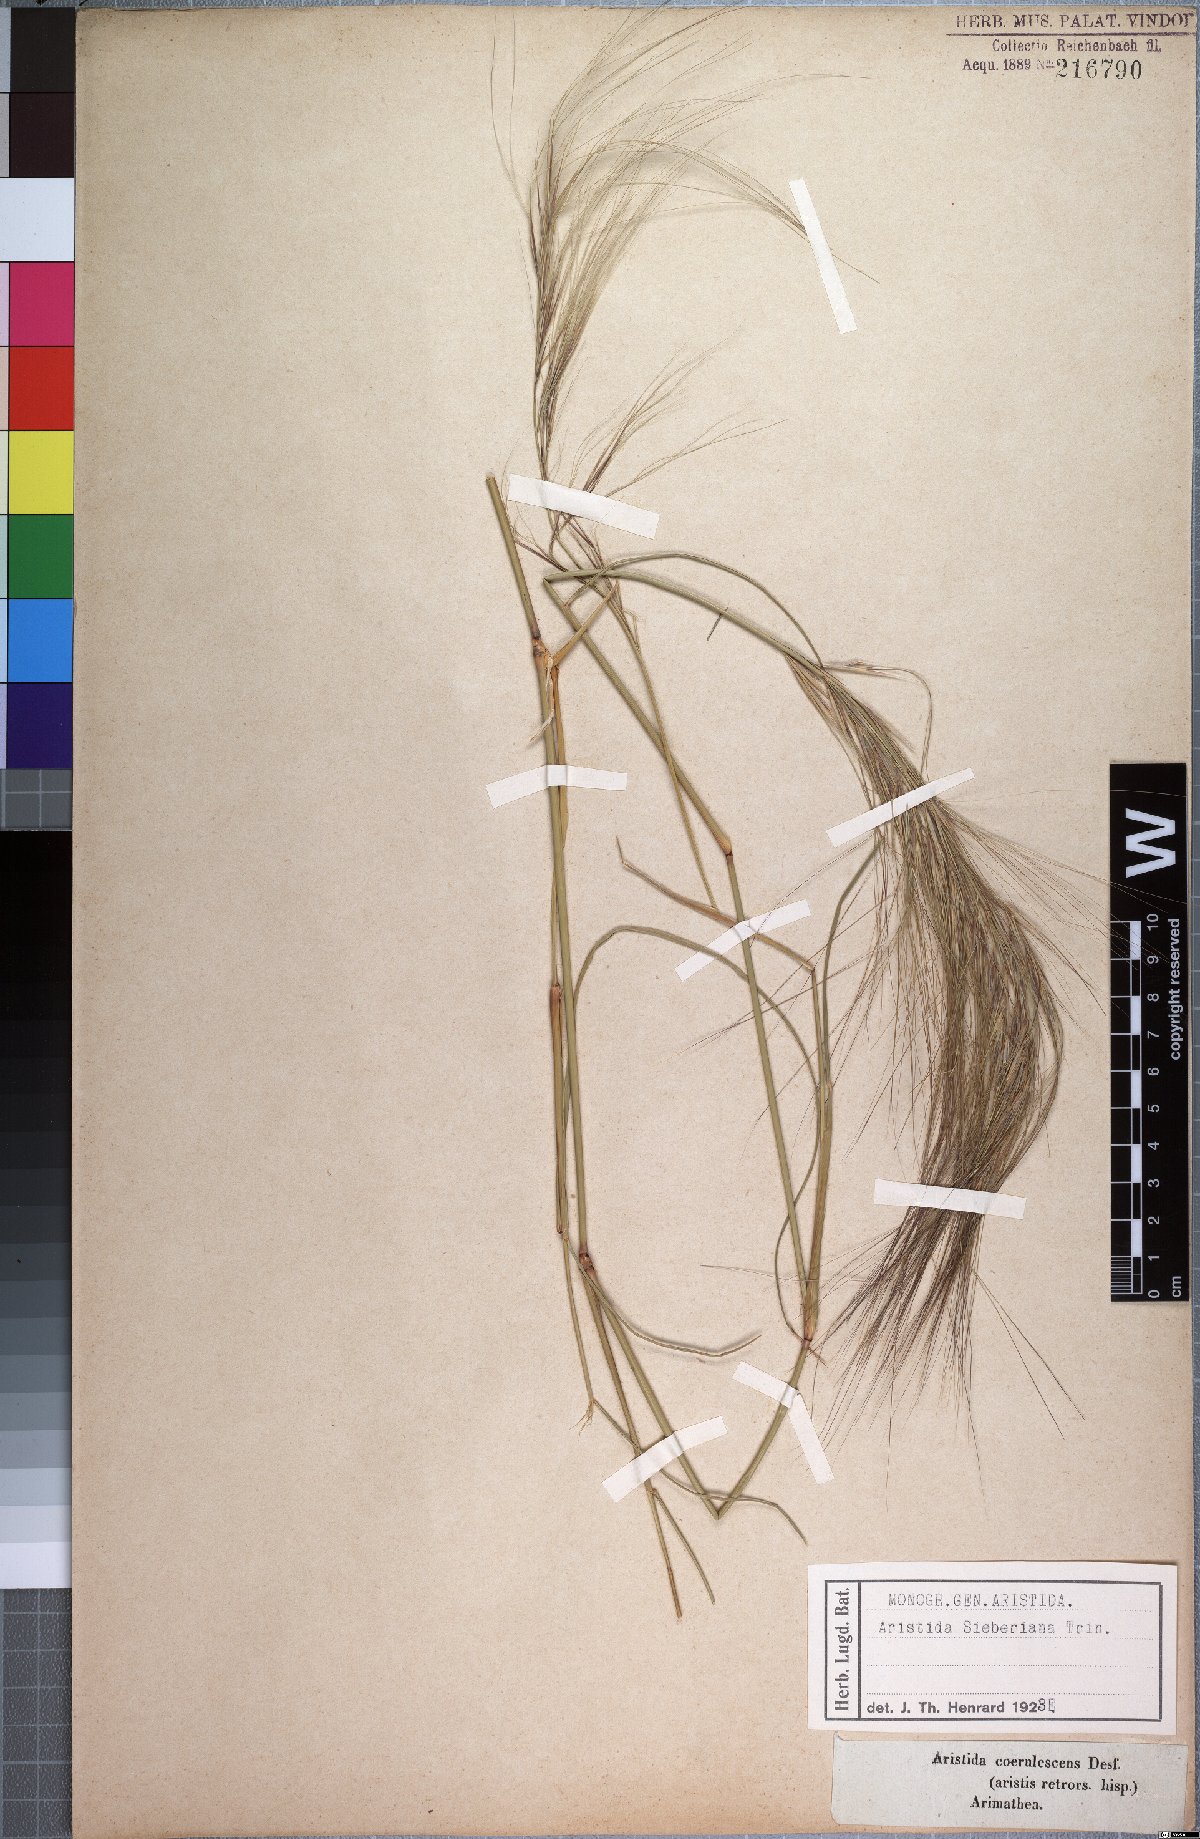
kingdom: Plantae
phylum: Tracheophyta
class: Liliopsida
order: Poales
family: Poaceae
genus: Aristida
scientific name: Aristida sieberiana
